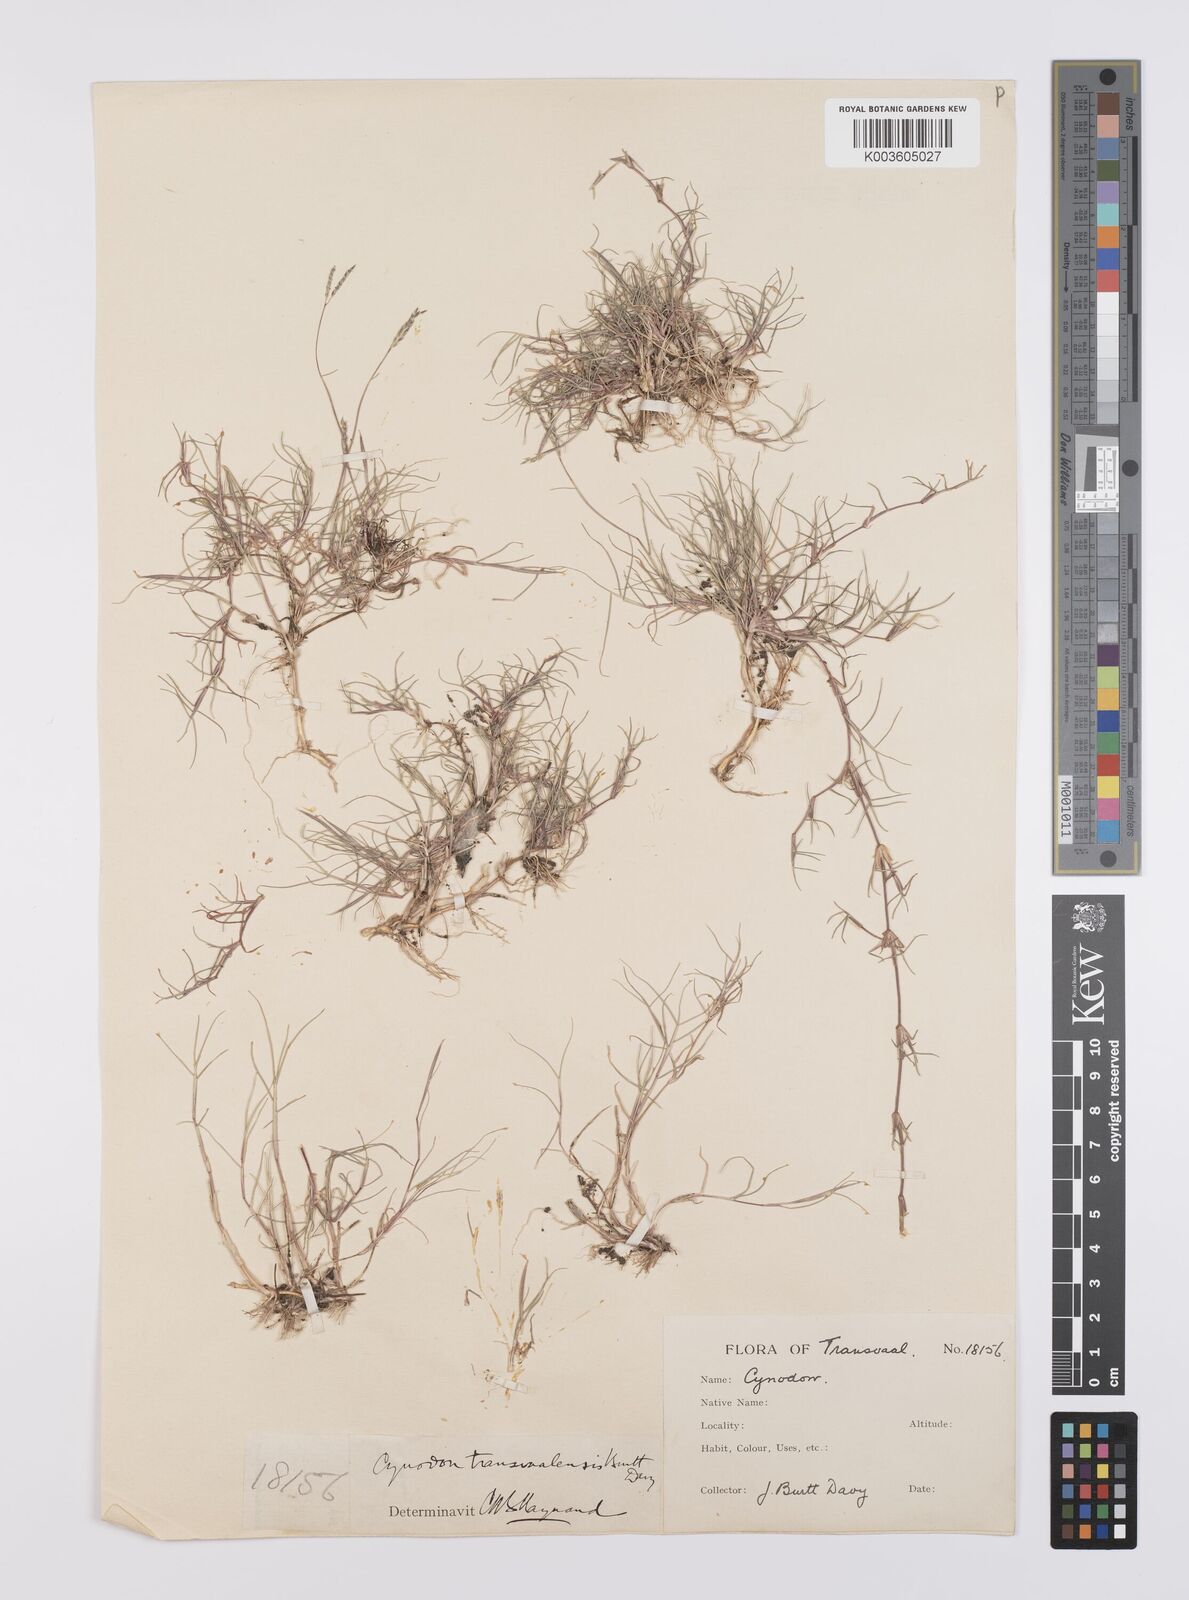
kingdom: Plantae
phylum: Tracheophyta
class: Liliopsida
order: Poales
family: Poaceae
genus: Cynodon
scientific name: Cynodon transvaalensis
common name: African bermuda grass
